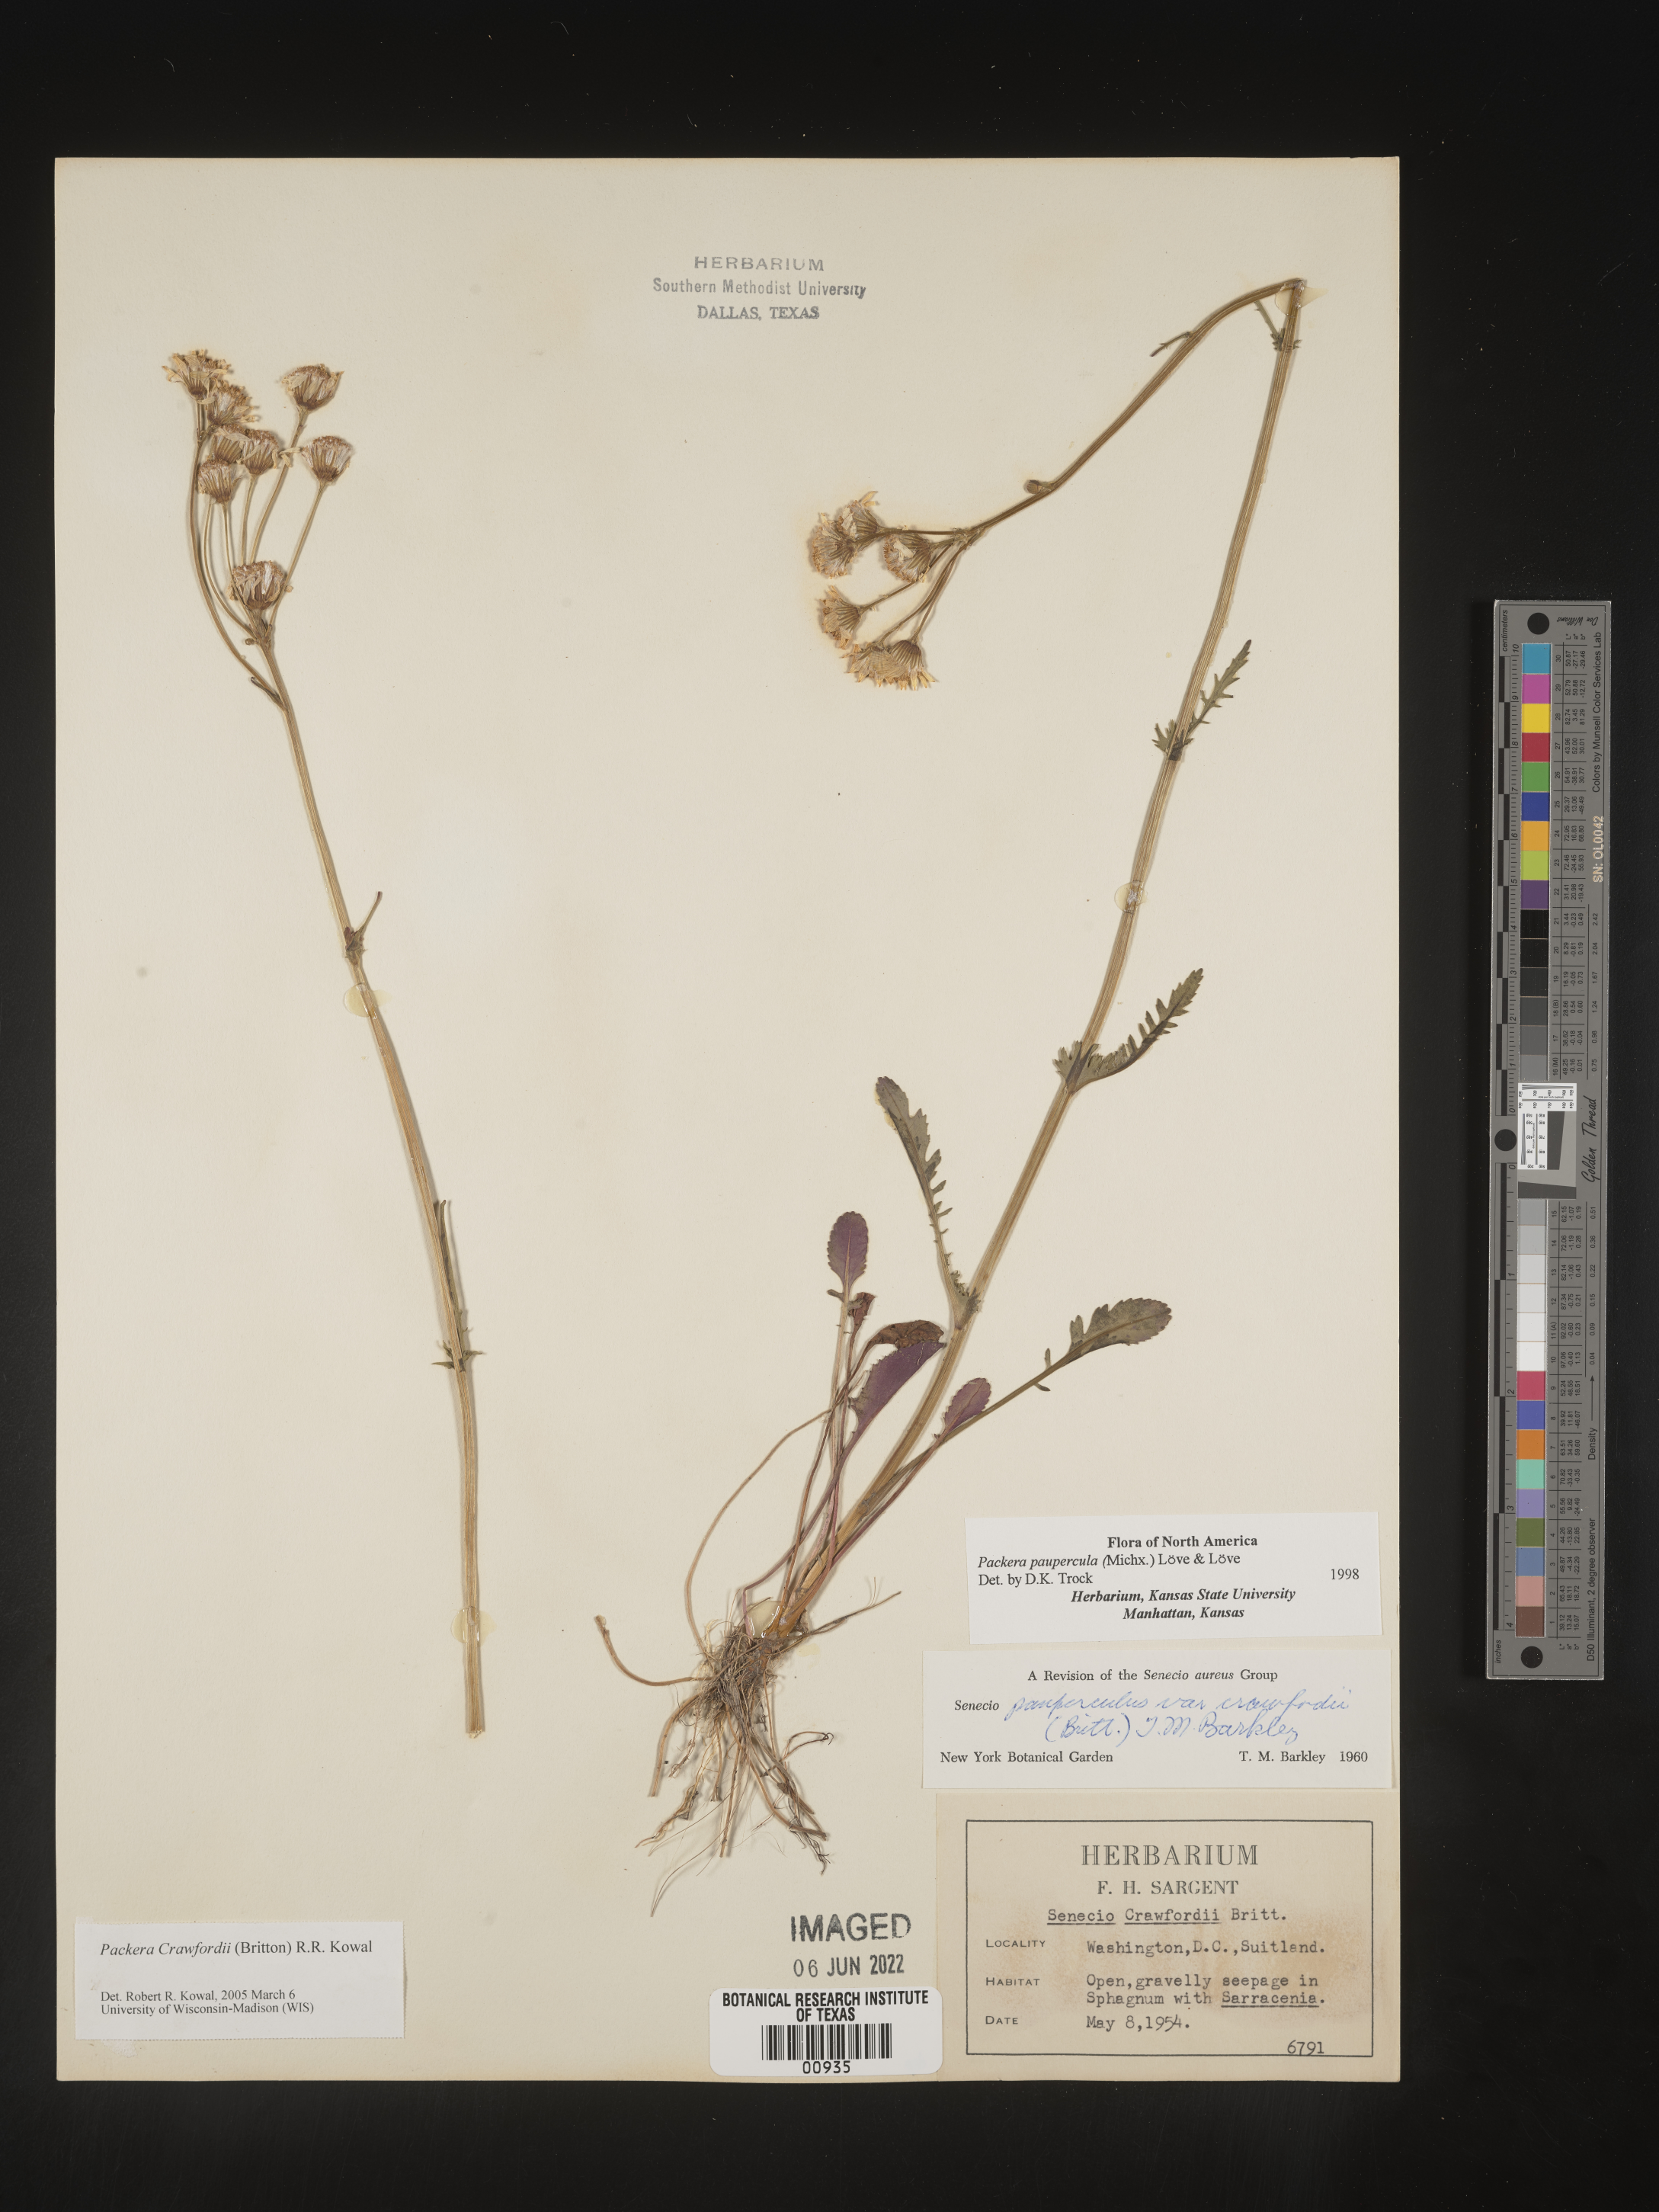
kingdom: Plantae
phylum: Tracheophyta
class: Magnoliopsida
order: Asterales
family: Asteraceae
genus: Packera
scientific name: Packera crawfordii
